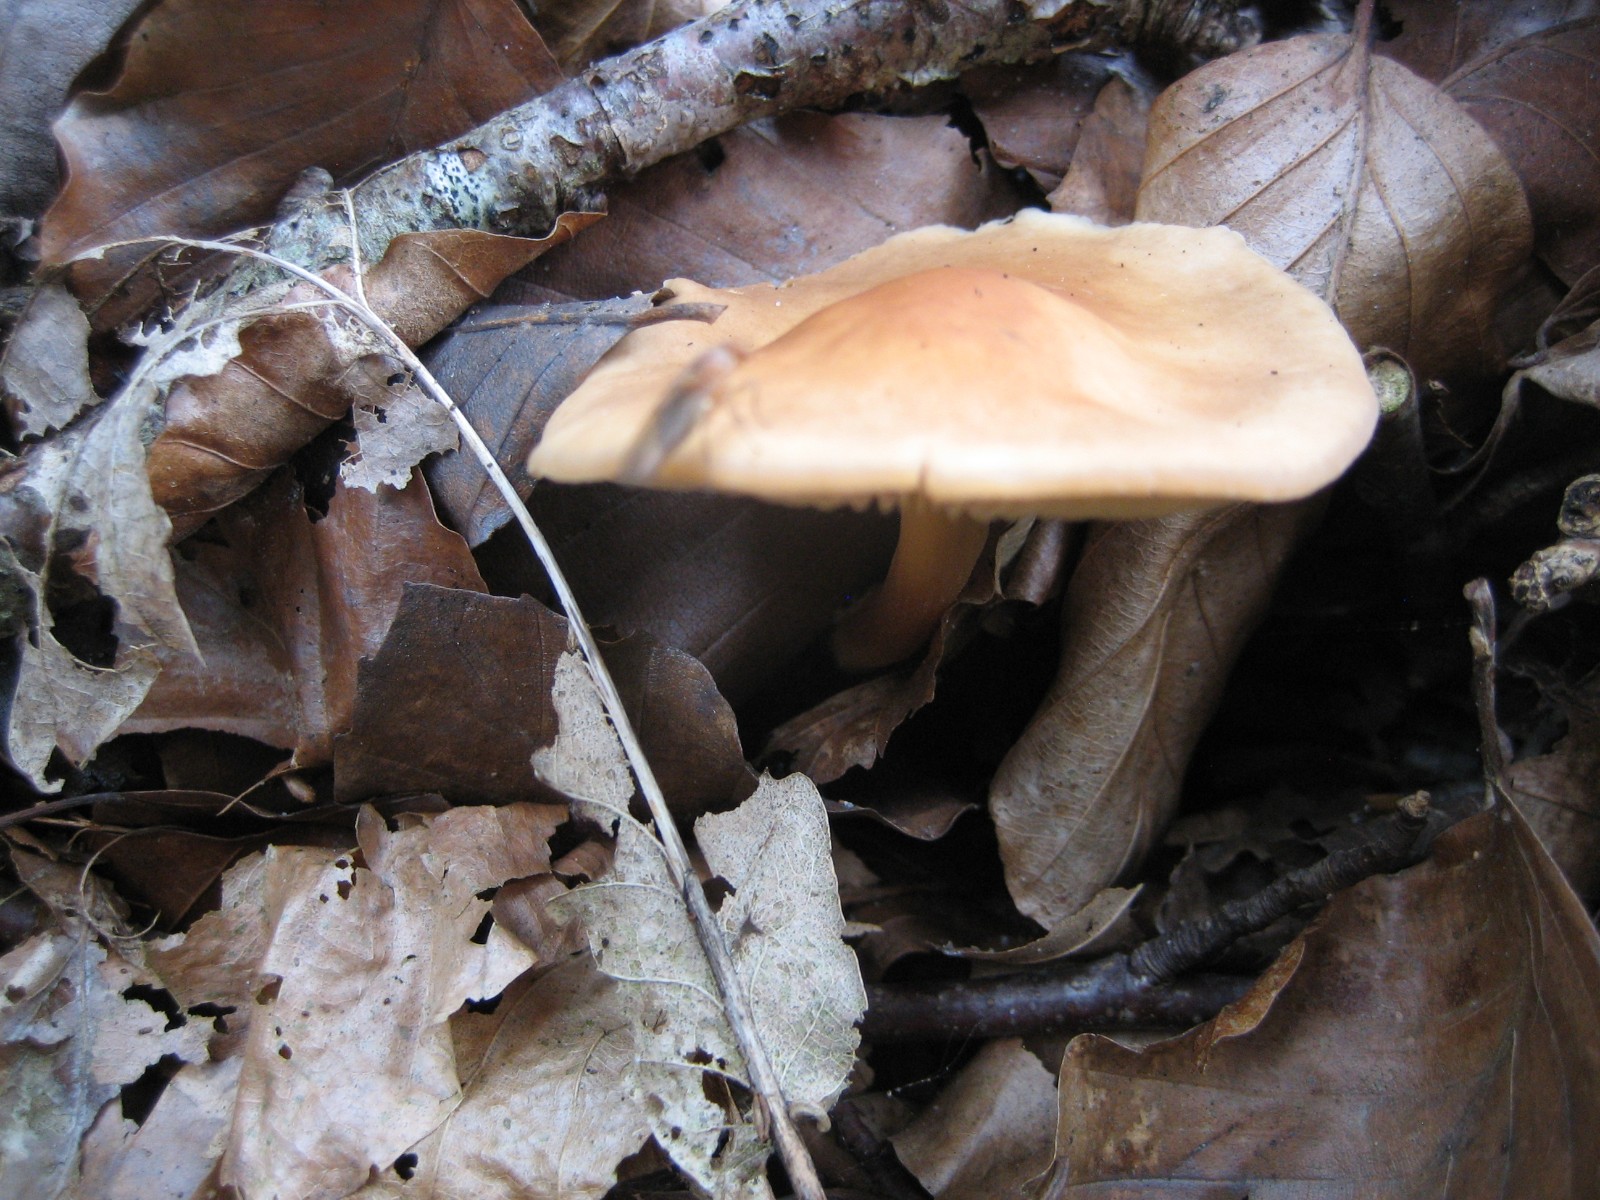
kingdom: Fungi
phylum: Basidiomycota
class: Agaricomycetes
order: Agaricales
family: Omphalotaceae
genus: Gymnopus
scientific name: Gymnopus dryophilus
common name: løv-fladhat
